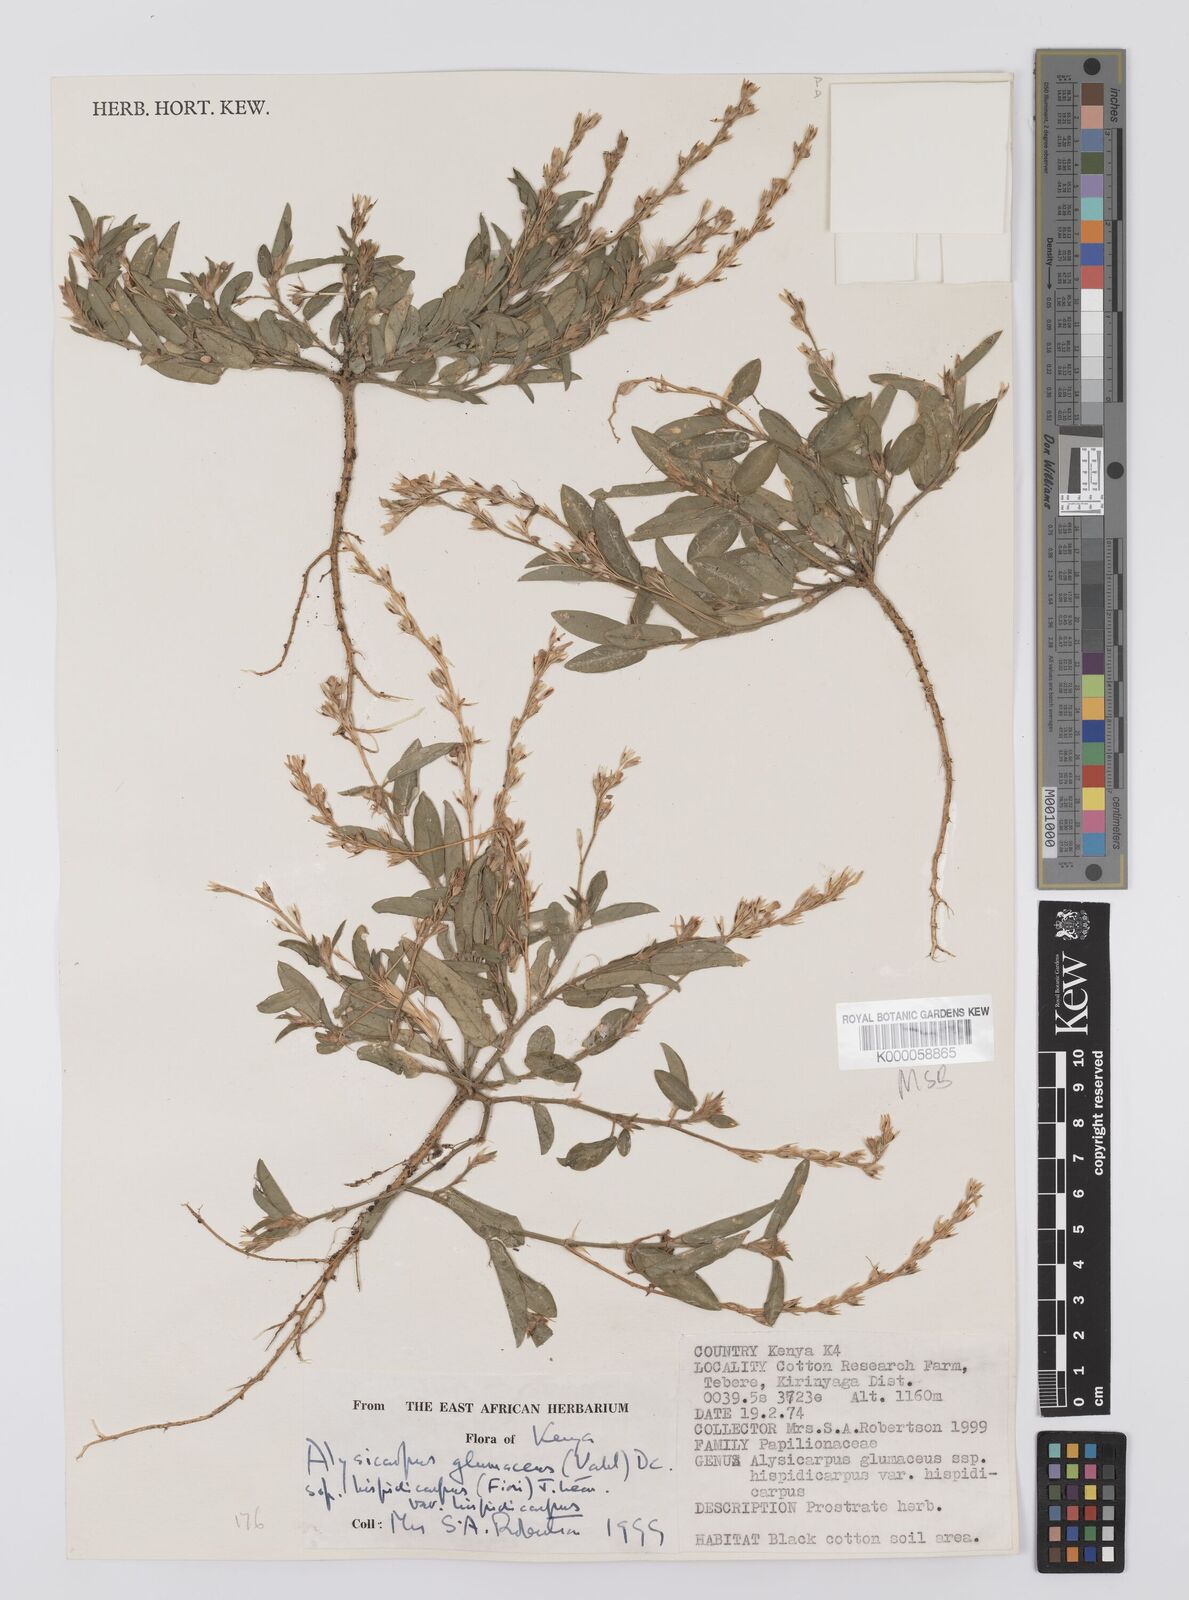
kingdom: Plantae
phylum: Tracheophyta
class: Magnoliopsida
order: Fabales
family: Fabaceae
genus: Alysicarpus
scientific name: Alysicarpus glumaceus
